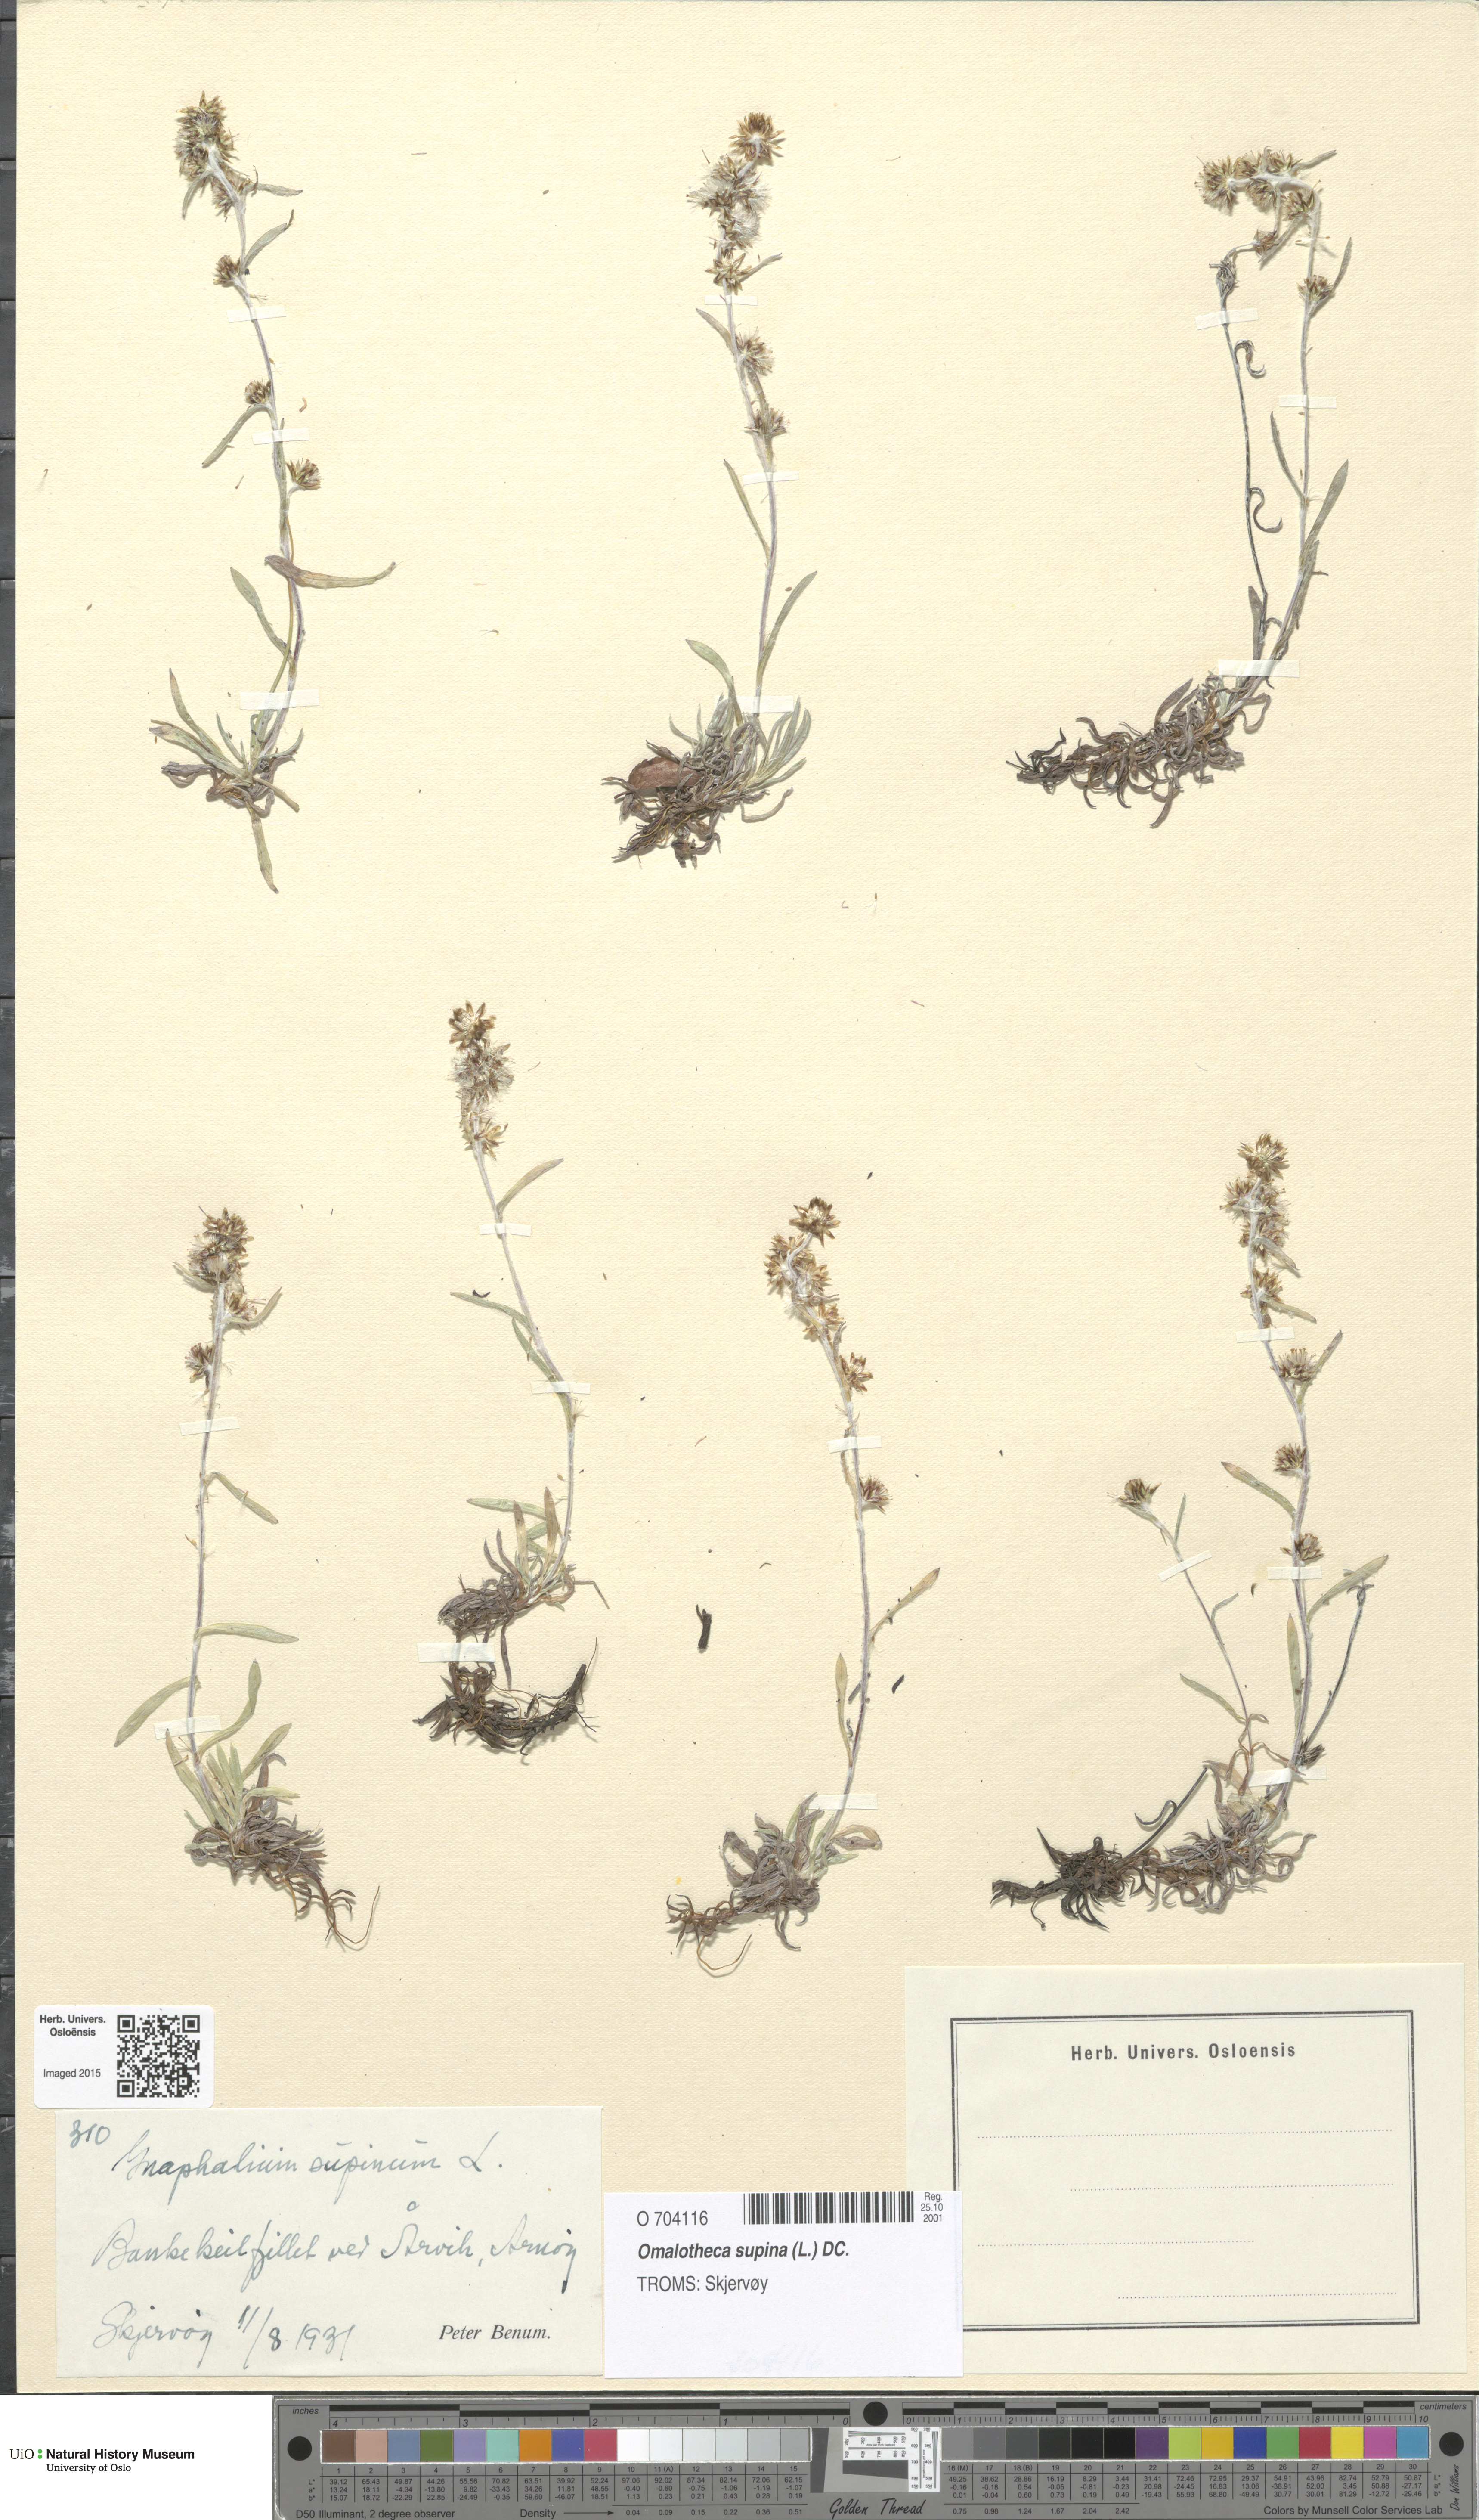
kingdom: Plantae
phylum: Tracheophyta
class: Magnoliopsida
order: Asterales
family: Asteraceae
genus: Omalotheca
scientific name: Omalotheca supina
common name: Alpine arctic-cudweed
